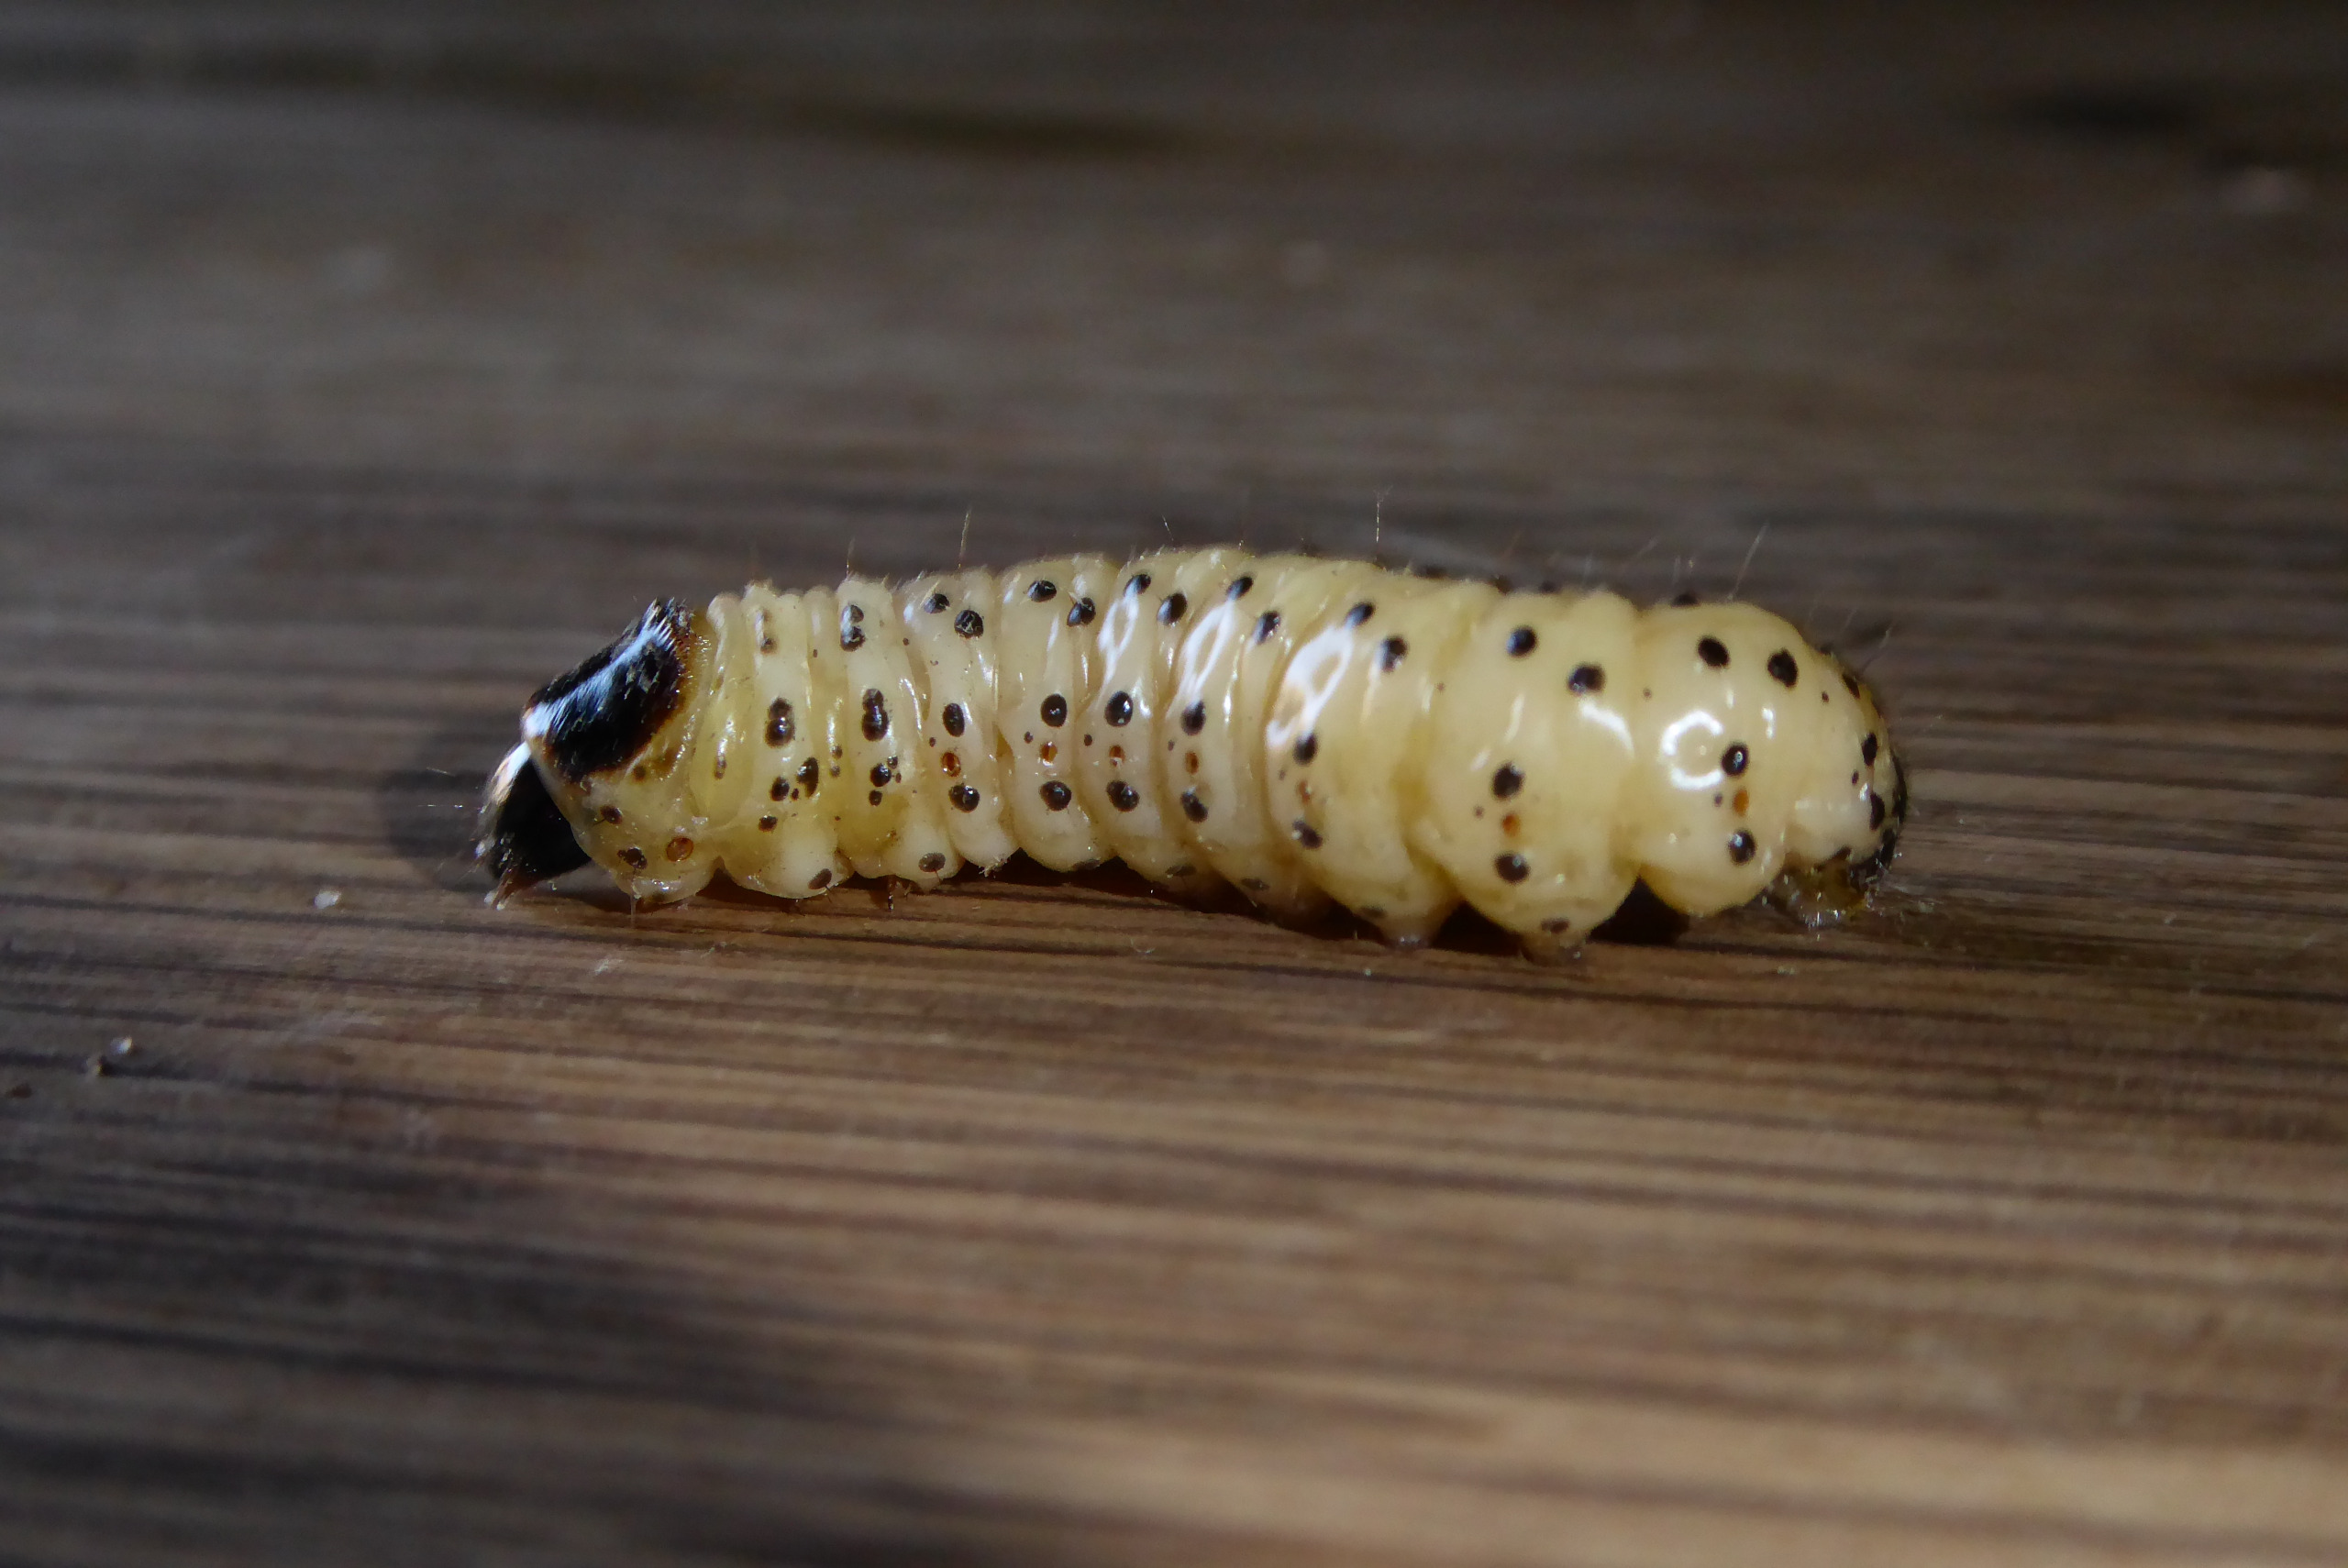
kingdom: Animalia
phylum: Arthropoda
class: Insecta
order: Lepidoptera
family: Cossidae
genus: Zeuzera
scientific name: Zeuzera pyrina
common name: Plettet træborer
